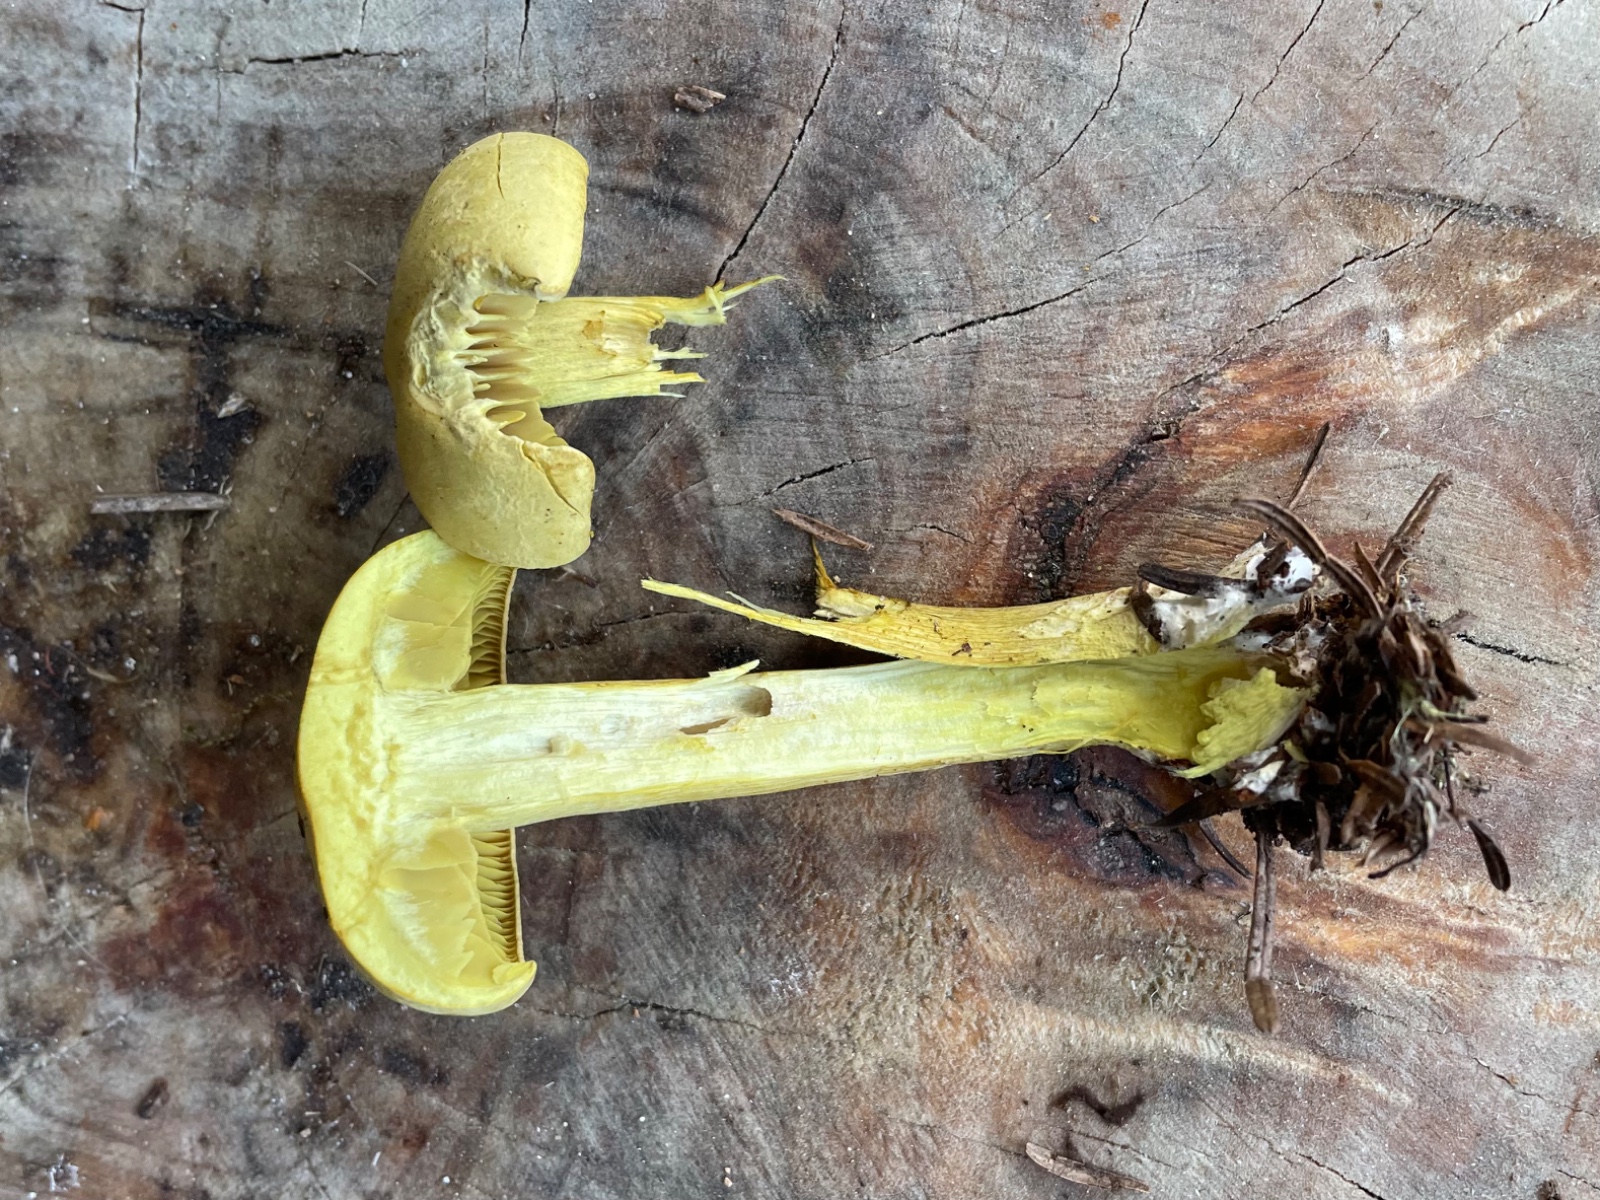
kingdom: Fungi
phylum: Basidiomycota
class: Agaricomycetes
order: Agaricales
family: Tricholomataceae
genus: Tricholoma
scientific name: Tricholoma sulphureum
